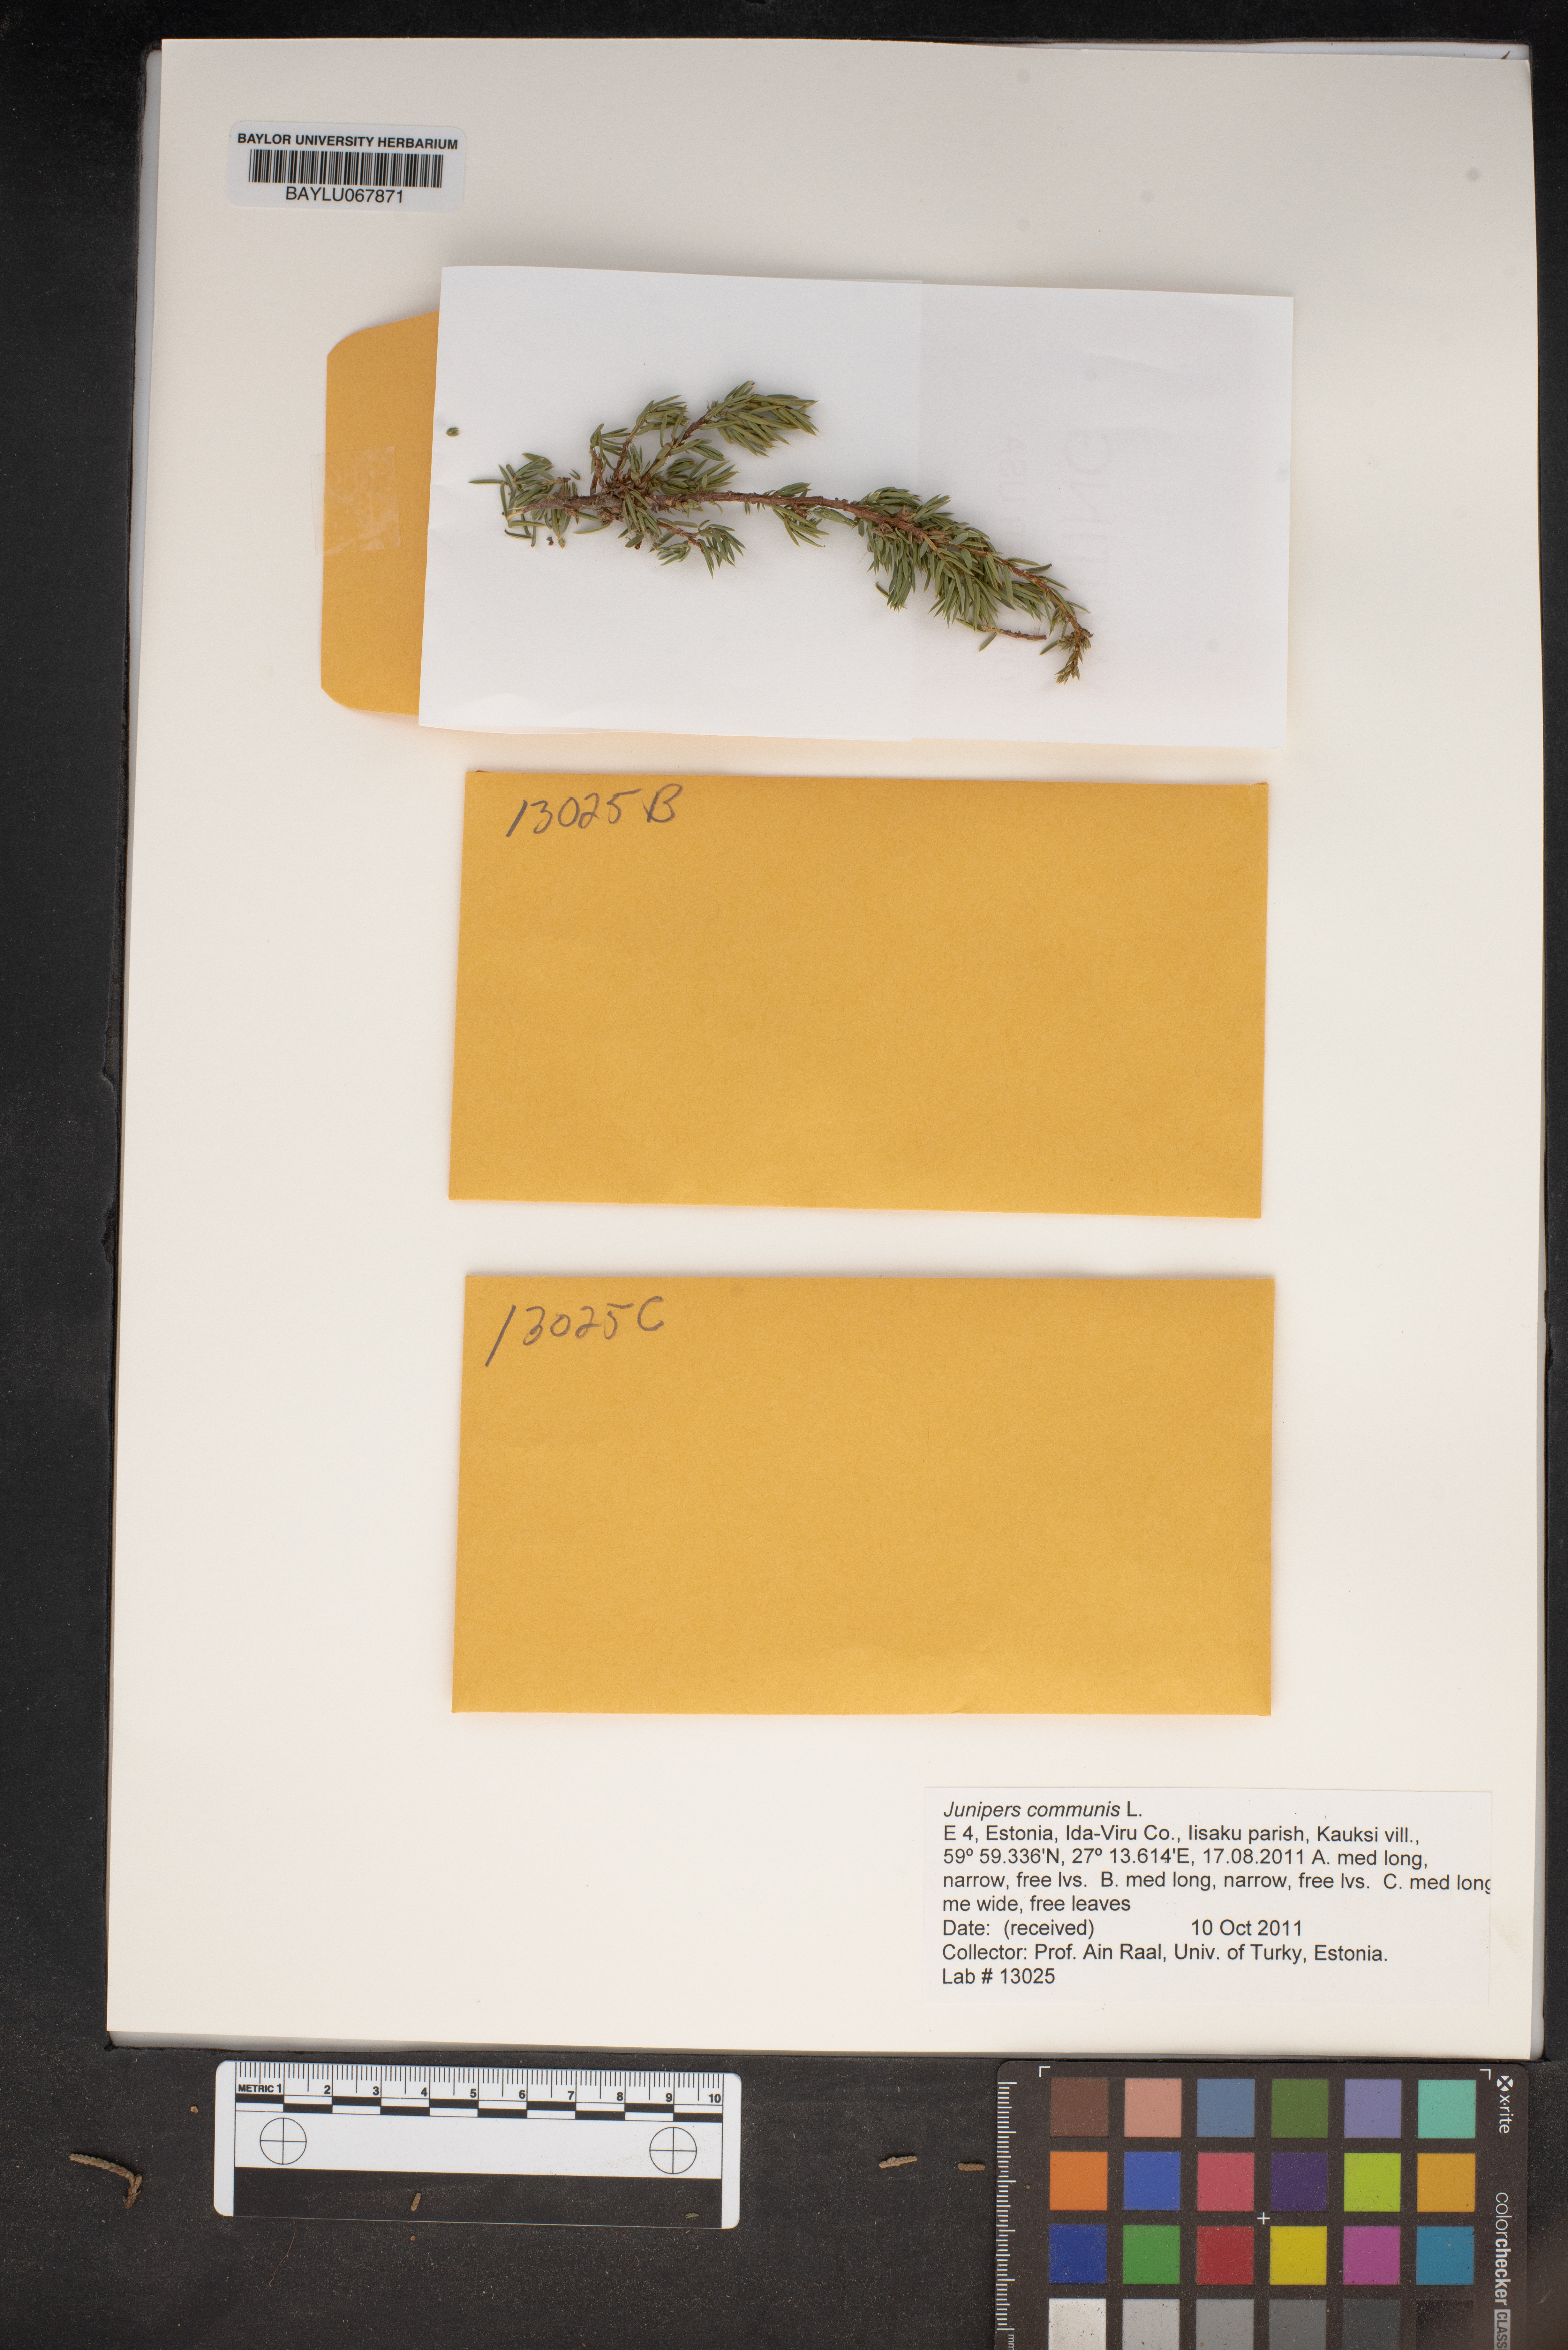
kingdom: Plantae
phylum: Tracheophyta
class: Pinopsida
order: Pinales
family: Cupressaceae
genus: Juniperus
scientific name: Juniperus communis
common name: Common juniper
